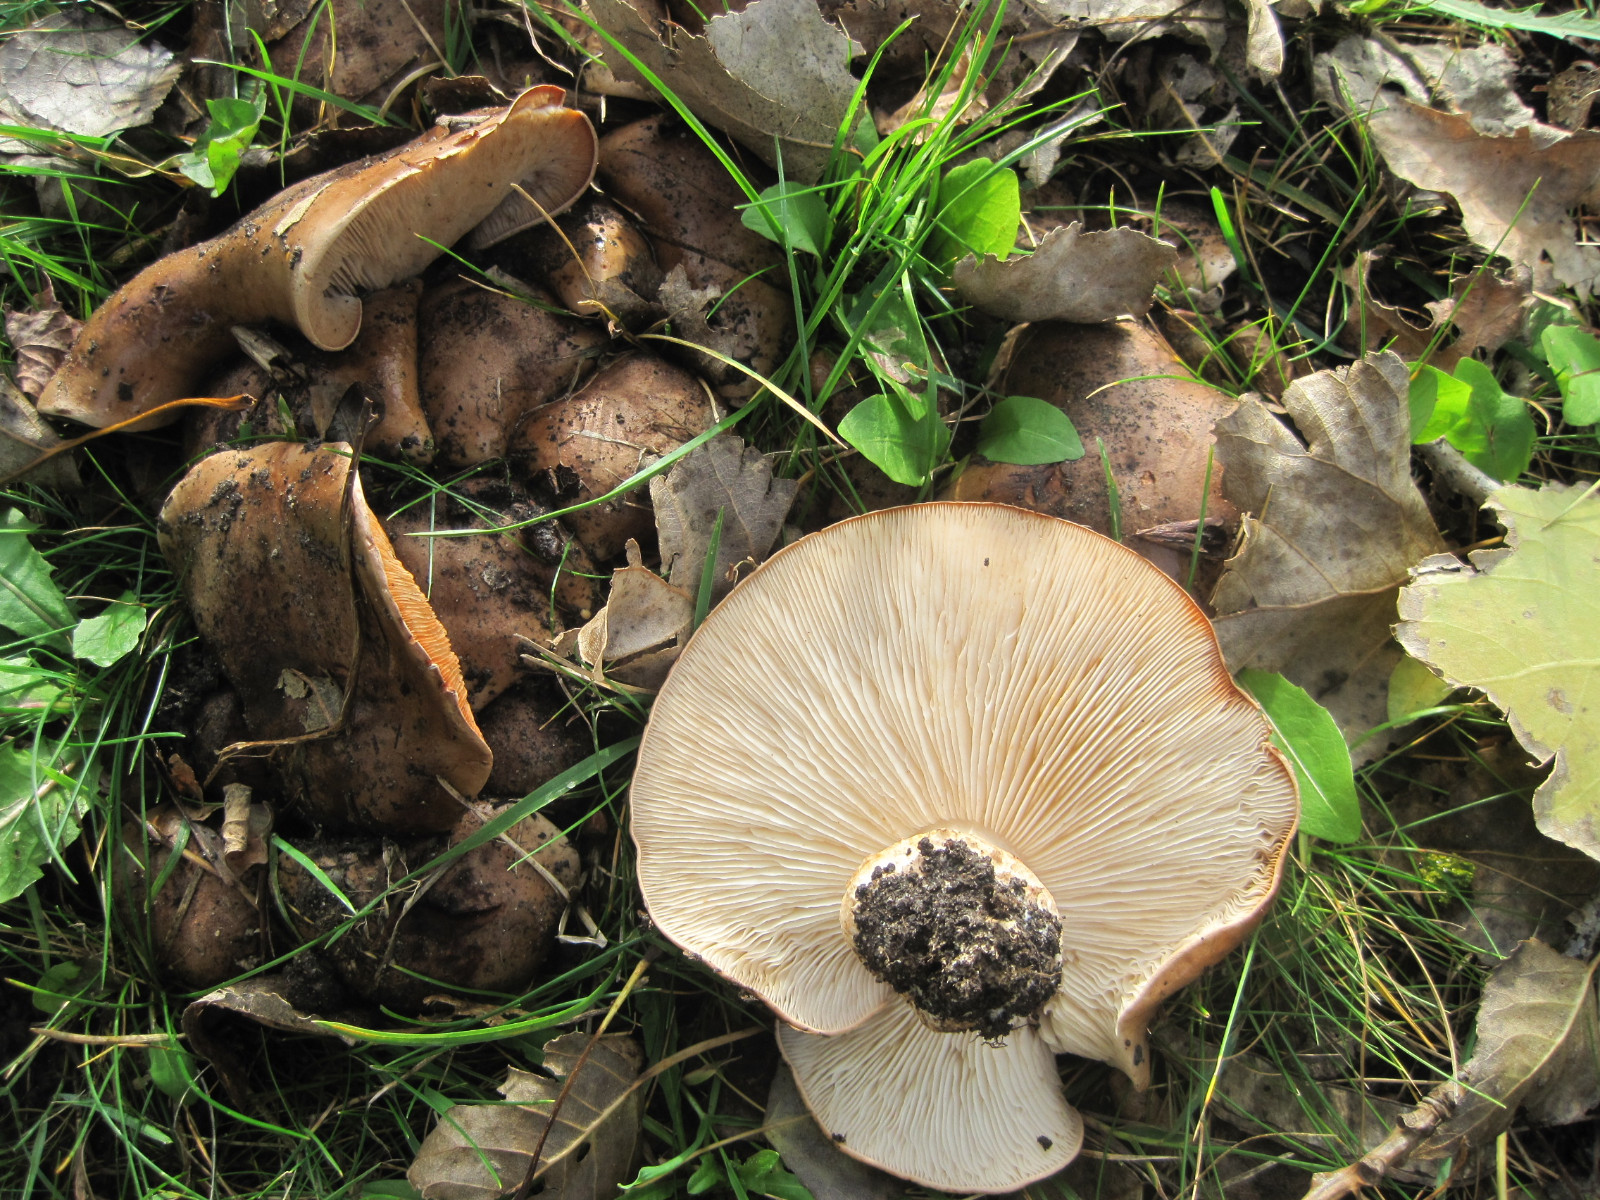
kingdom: Fungi
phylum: Basidiomycota
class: Agaricomycetes
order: Agaricales
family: Tricholomataceae
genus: Tricholoma
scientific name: Tricholoma populinum
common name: poppel-ridderhat
